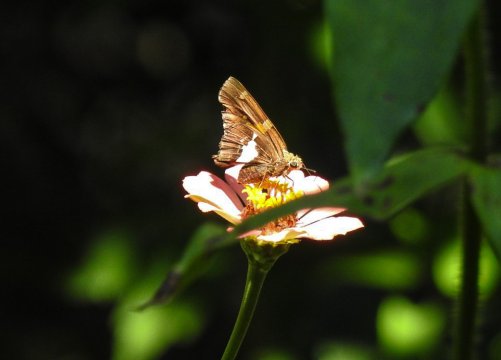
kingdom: Animalia
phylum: Arthropoda
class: Insecta
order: Lepidoptera
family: Hesperiidae
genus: Epargyreus
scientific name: Epargyreus clarus
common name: Silver-spotted Skipper
